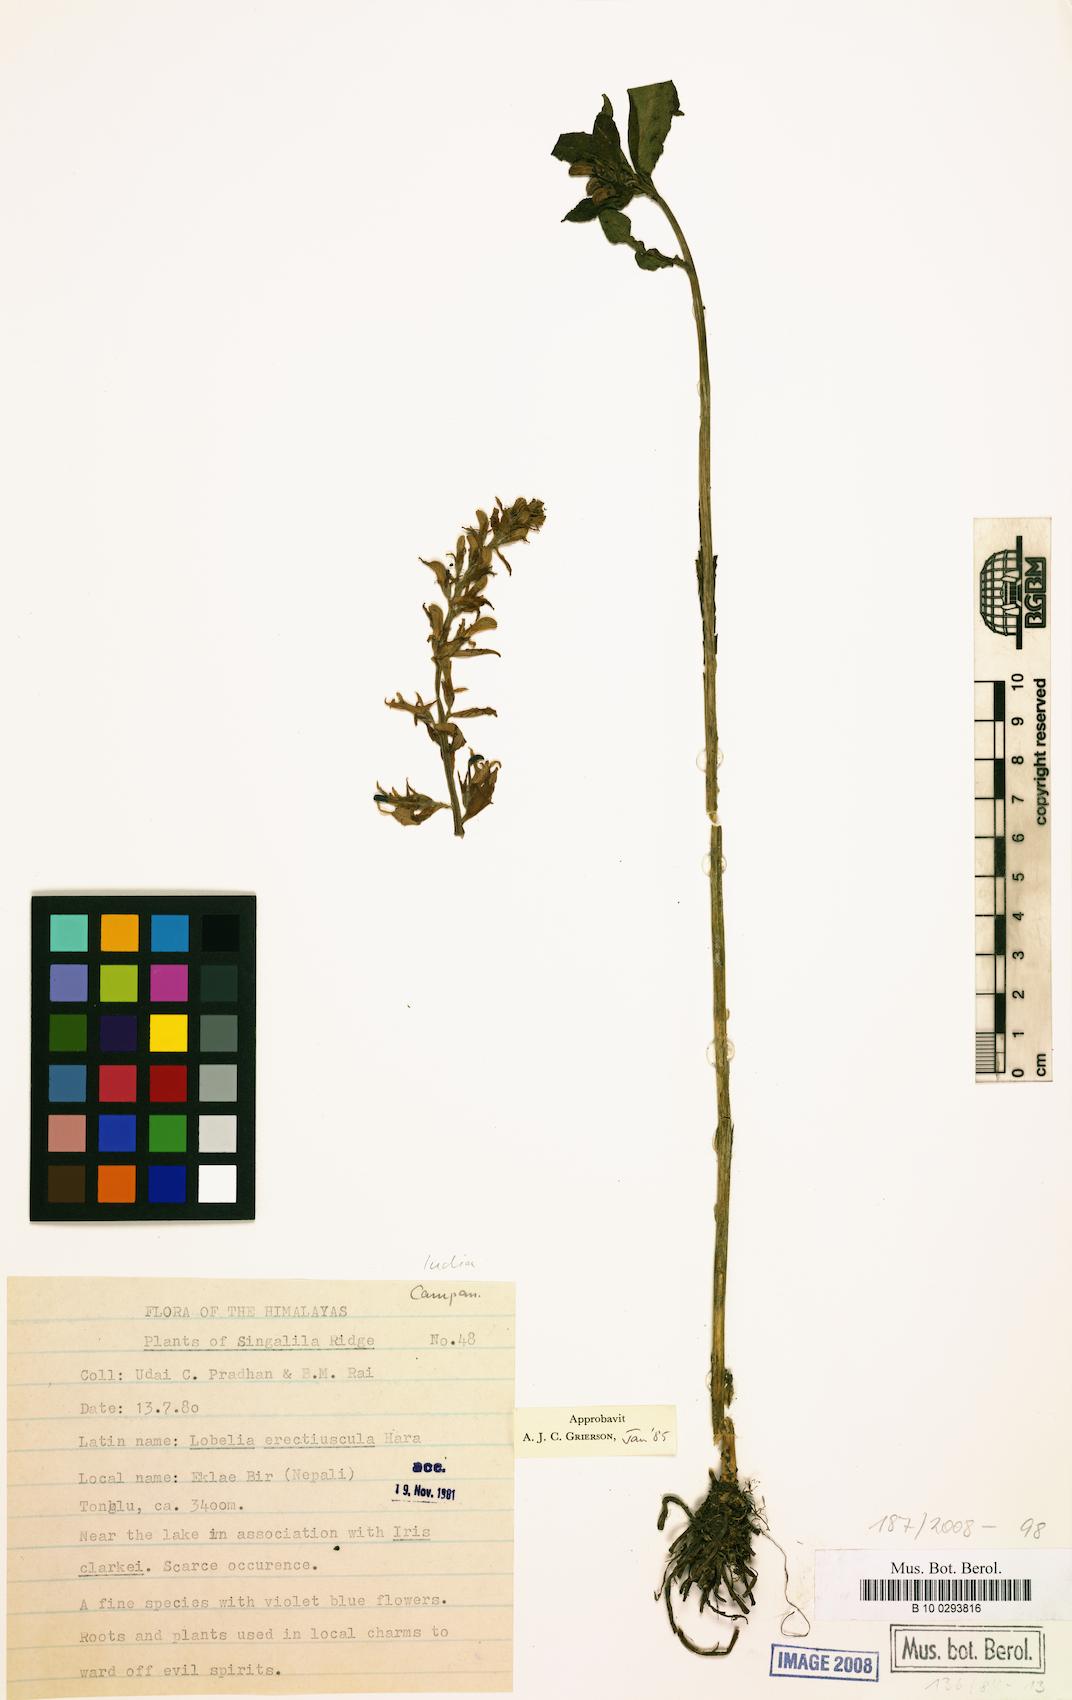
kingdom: Plantae
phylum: Tracheophyta
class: Magnoliopsida
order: Asterales
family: Campanulaceae
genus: Lobelia
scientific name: Lobelia erectiuscula
